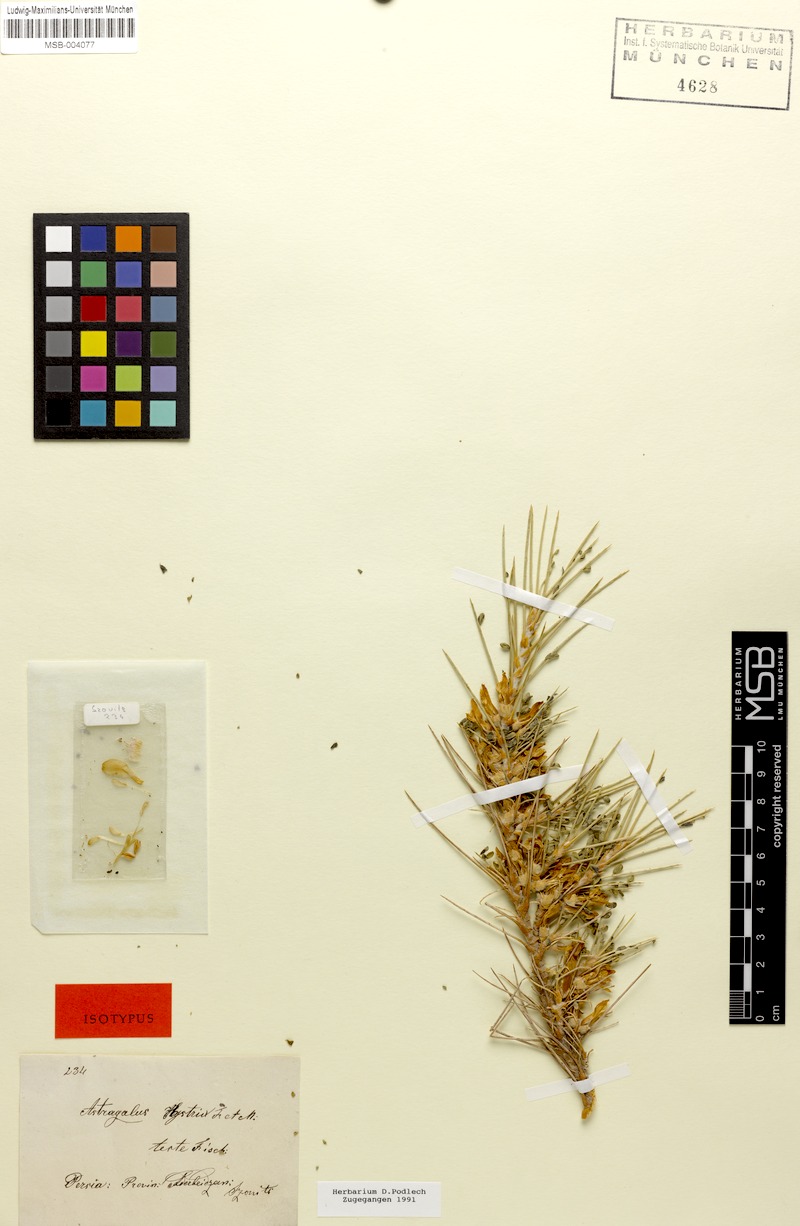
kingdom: Plantae
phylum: Tracheophyta
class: Magnoliopsida
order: Fabales
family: Fabaceae
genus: Astragalus
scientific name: Astragalus hystrix
